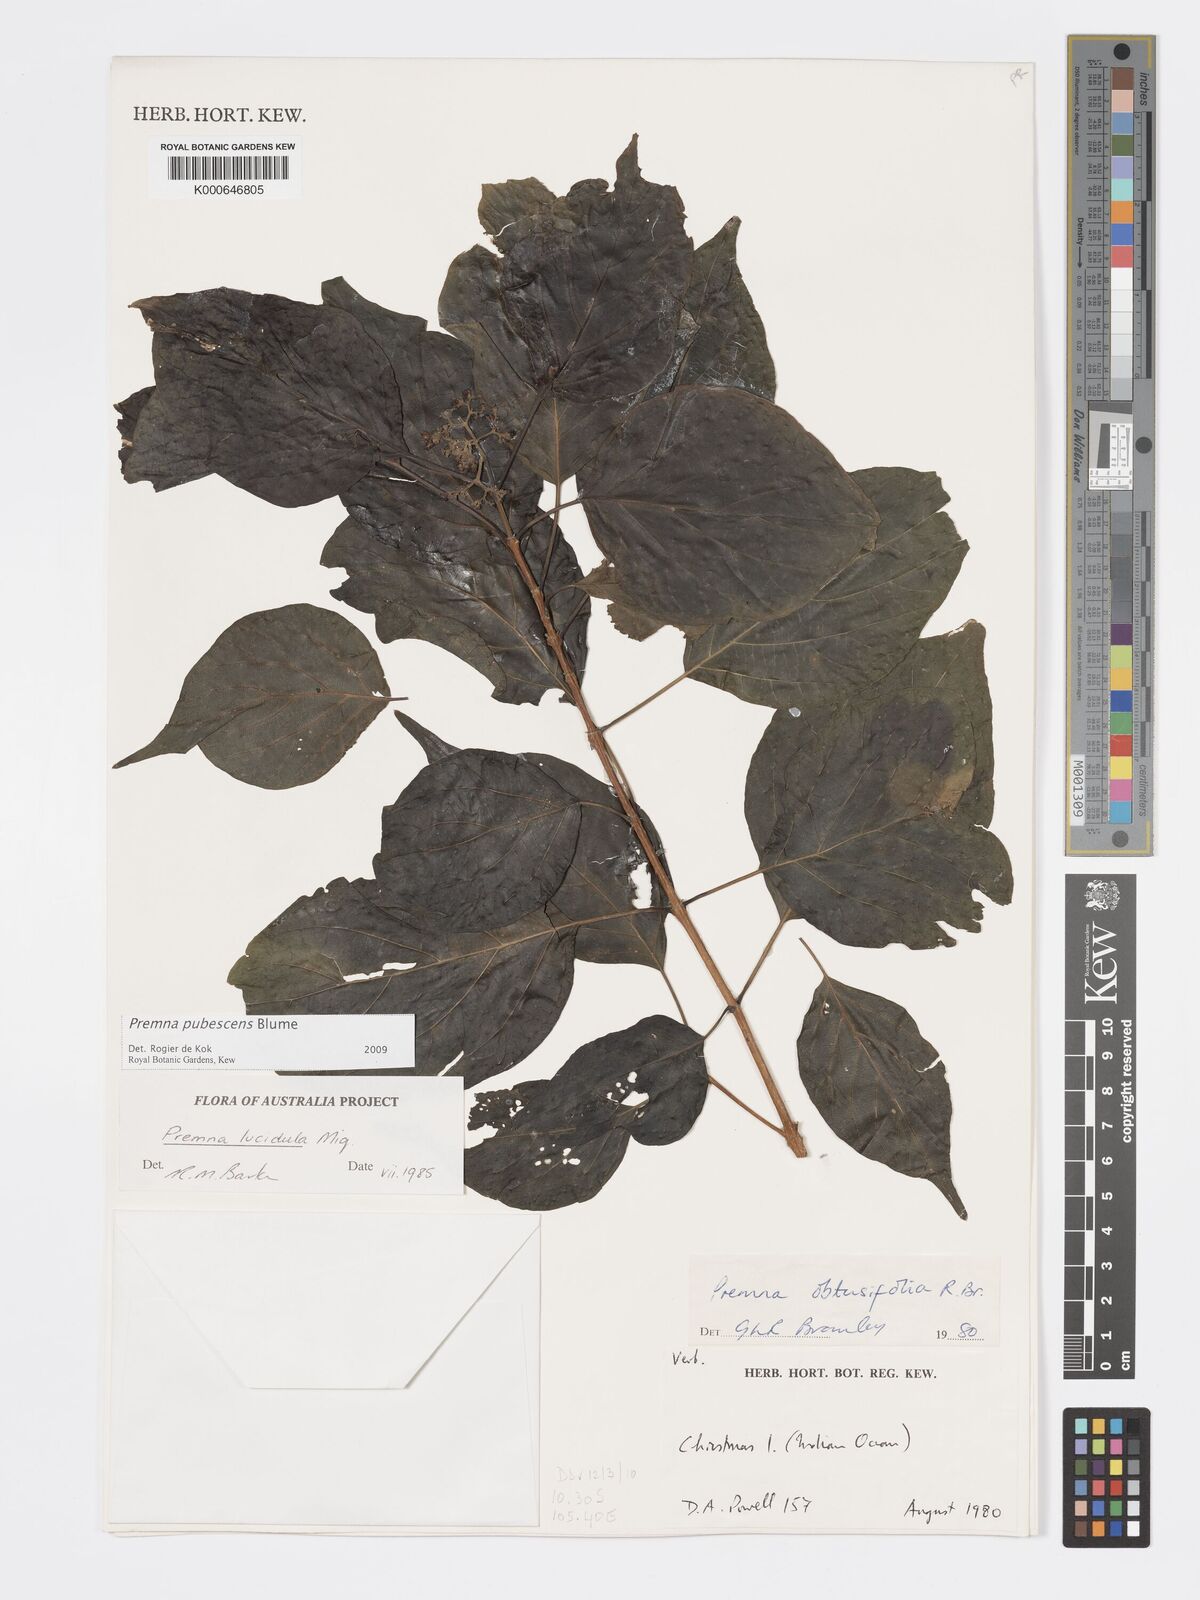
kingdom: Plantae
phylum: Tracheophyta
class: Magnoliopsida
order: Lamiales
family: Lamiaceae
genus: Premna
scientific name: Premna
